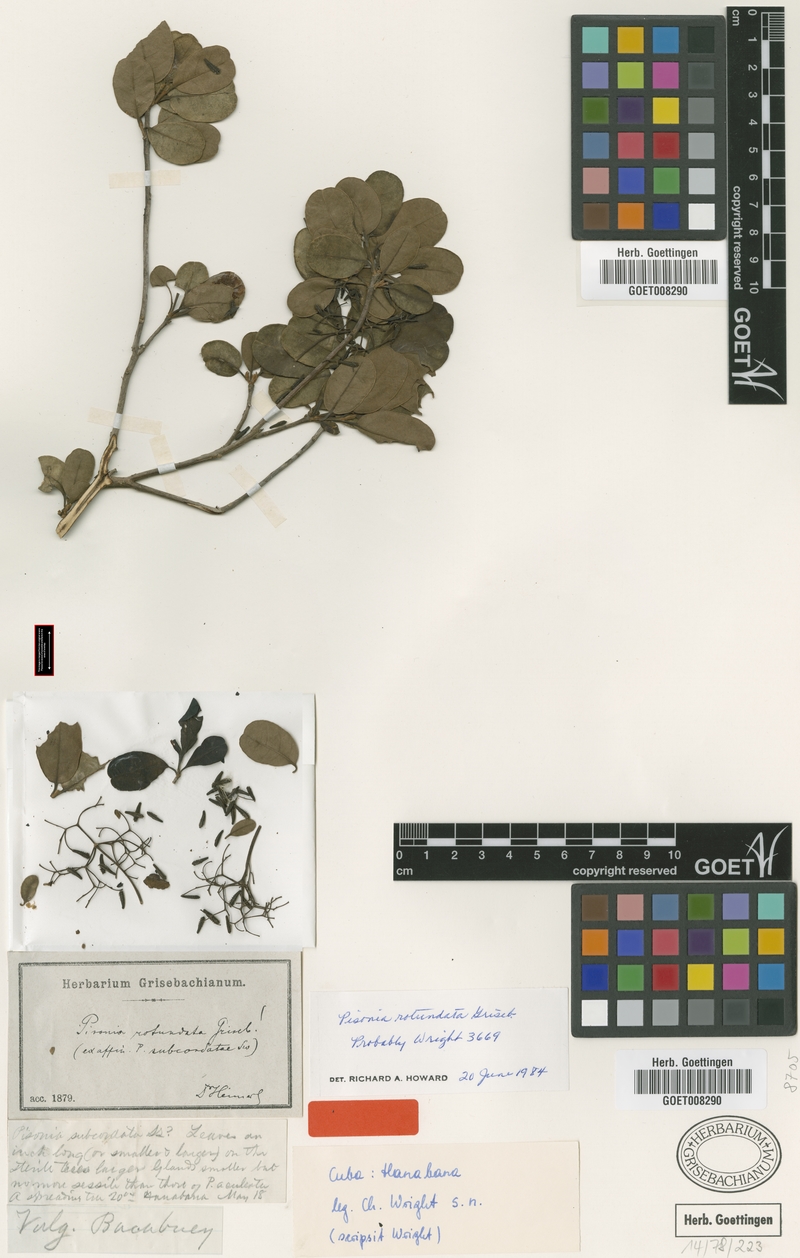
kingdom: Plantae
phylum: Tracheophyta
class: Magnoliopsida
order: Caryophyllales
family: Nyctaginaceae
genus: Pisonia
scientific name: Pisonia rotundata
